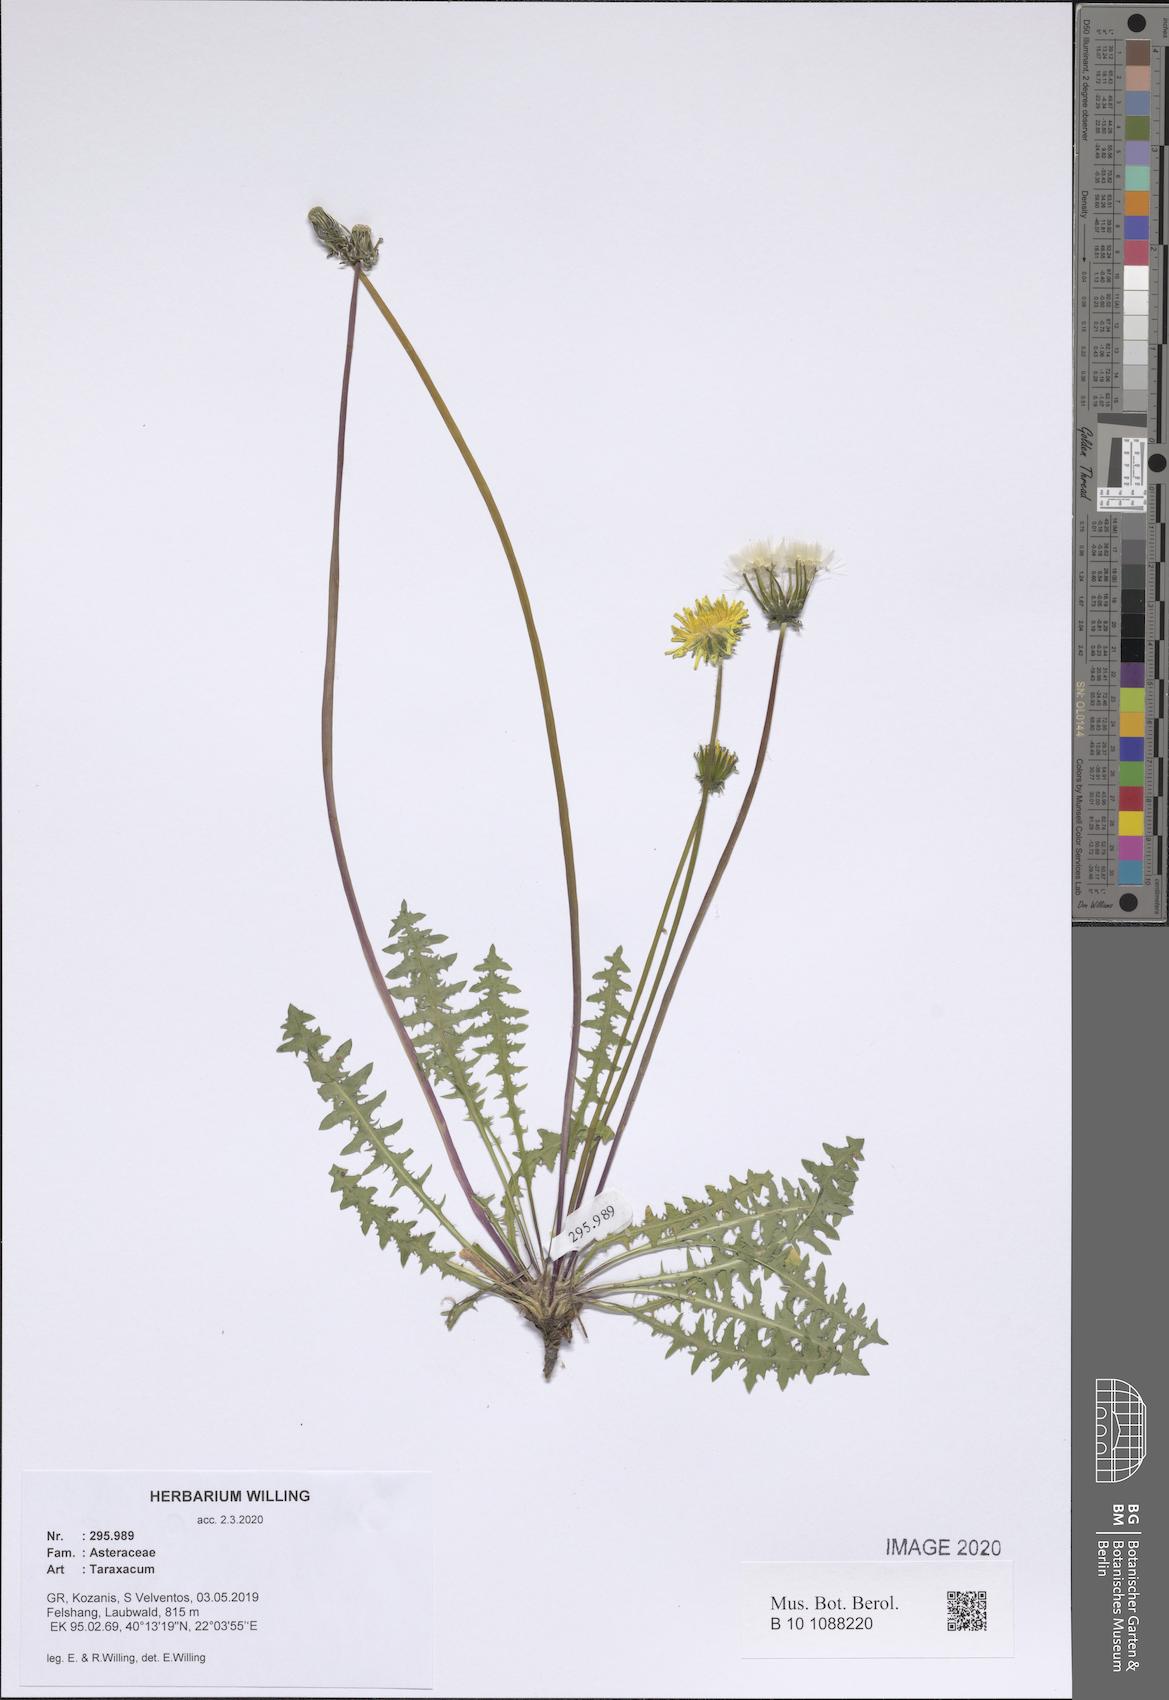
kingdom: Plantae
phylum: Tracheophyta
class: Magnoliopsida
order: Asterales
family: Asteraceae
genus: Taraxacum
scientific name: Taraxacum
